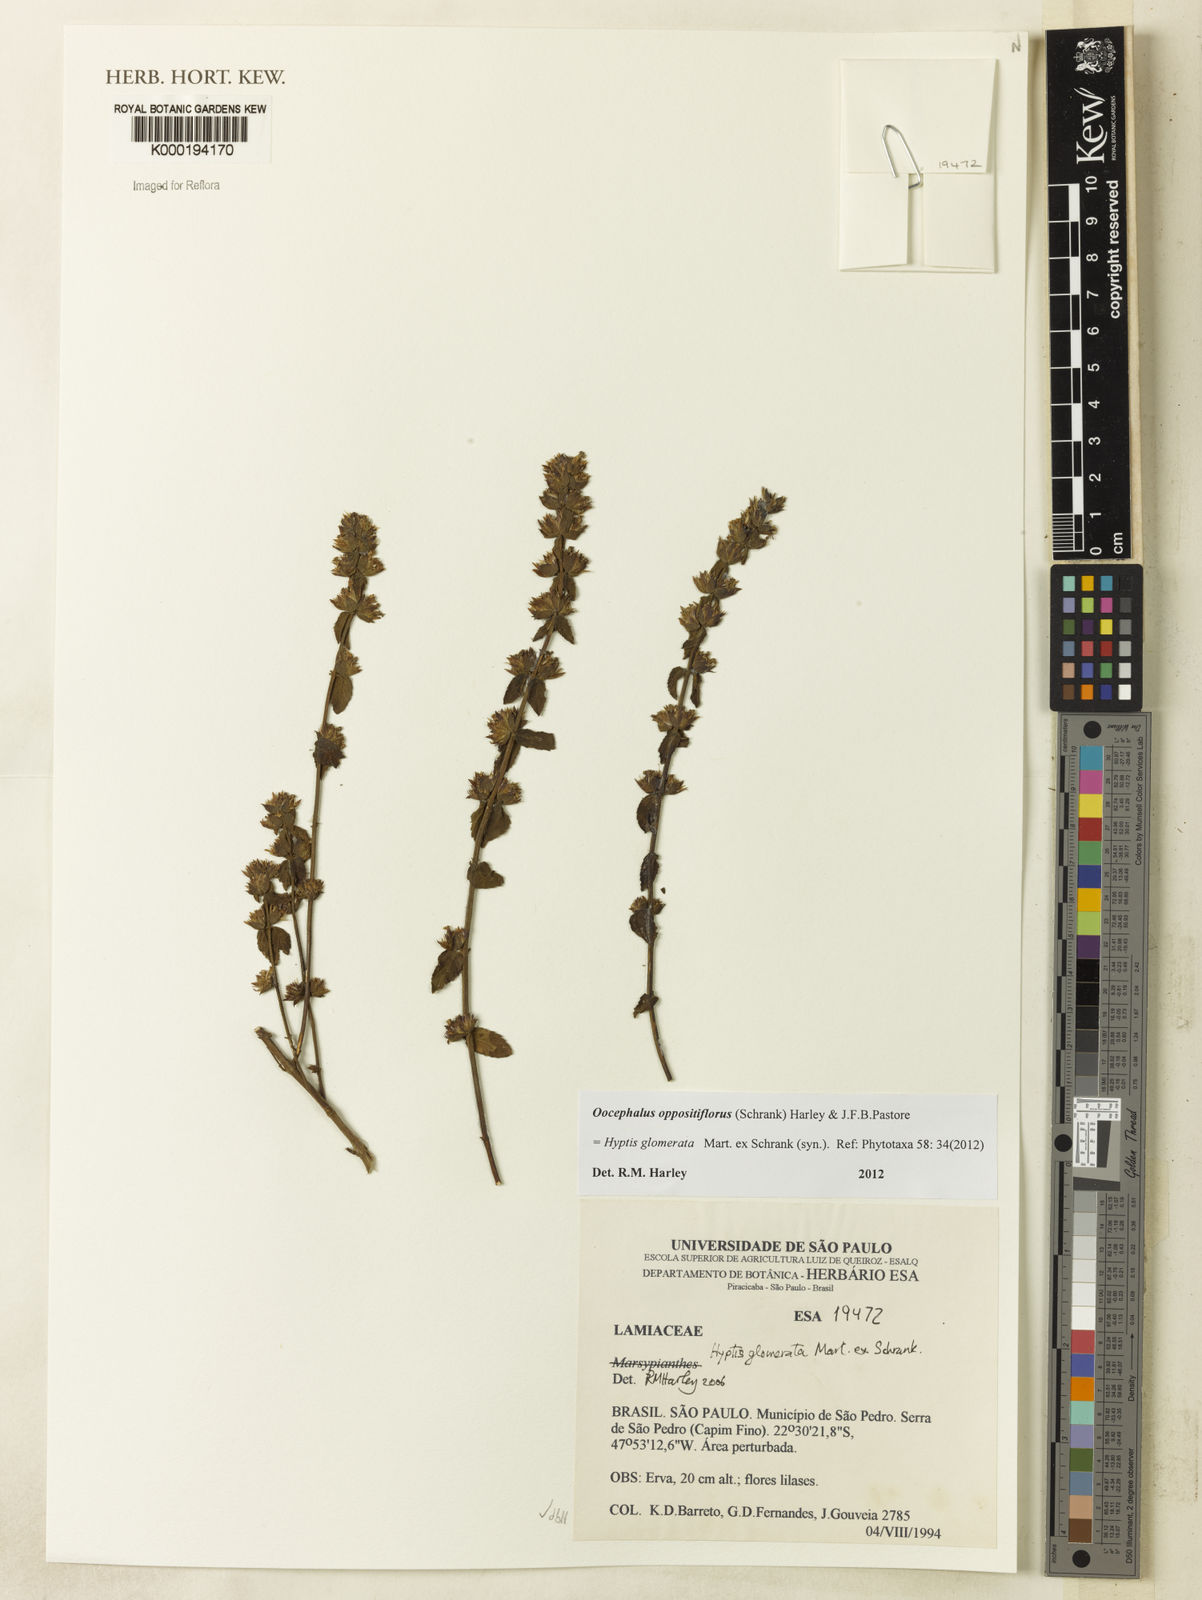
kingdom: Plantae
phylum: Tracheophyta
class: Magnoliopsida
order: Lamiales
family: Lamiaceae
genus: Oocephalus
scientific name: Oocephalus oppositiflorus
